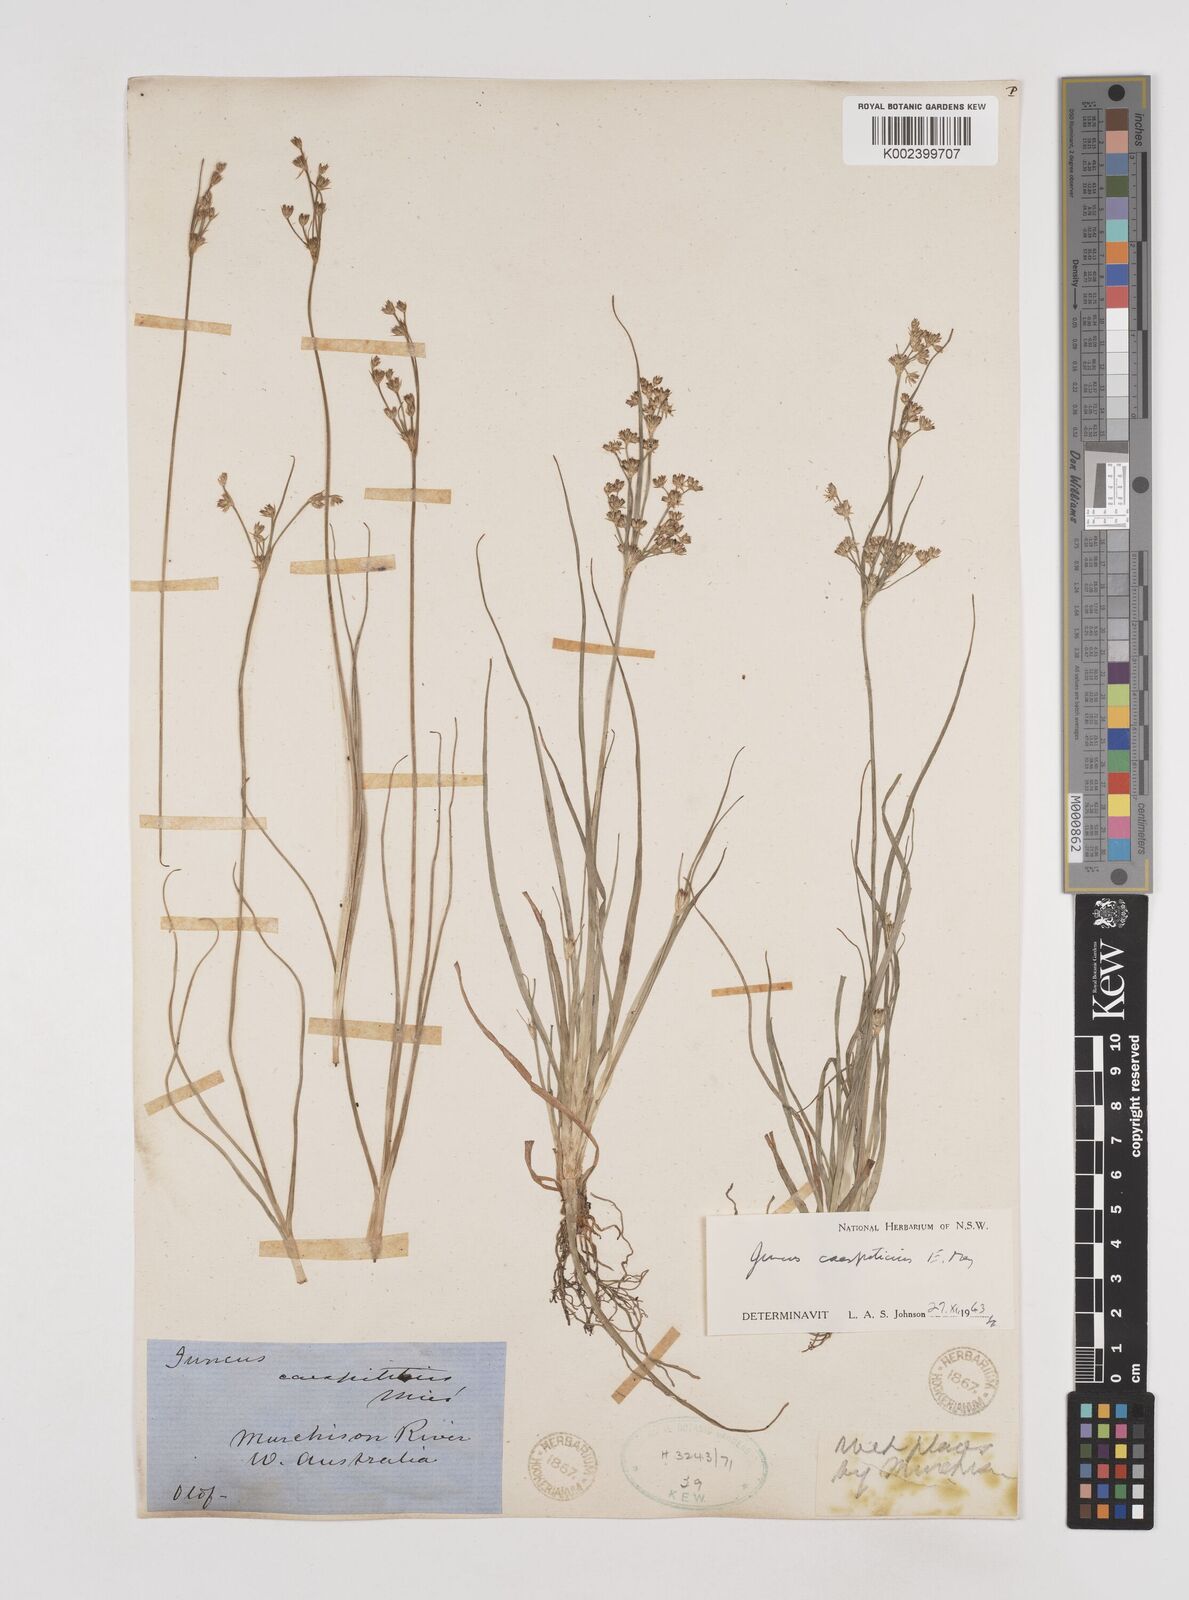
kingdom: Plantae
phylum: Tracheophyta
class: Liliopsida
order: Poales
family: Juncaceae
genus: Juncus
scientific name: Juncus caespiticius
